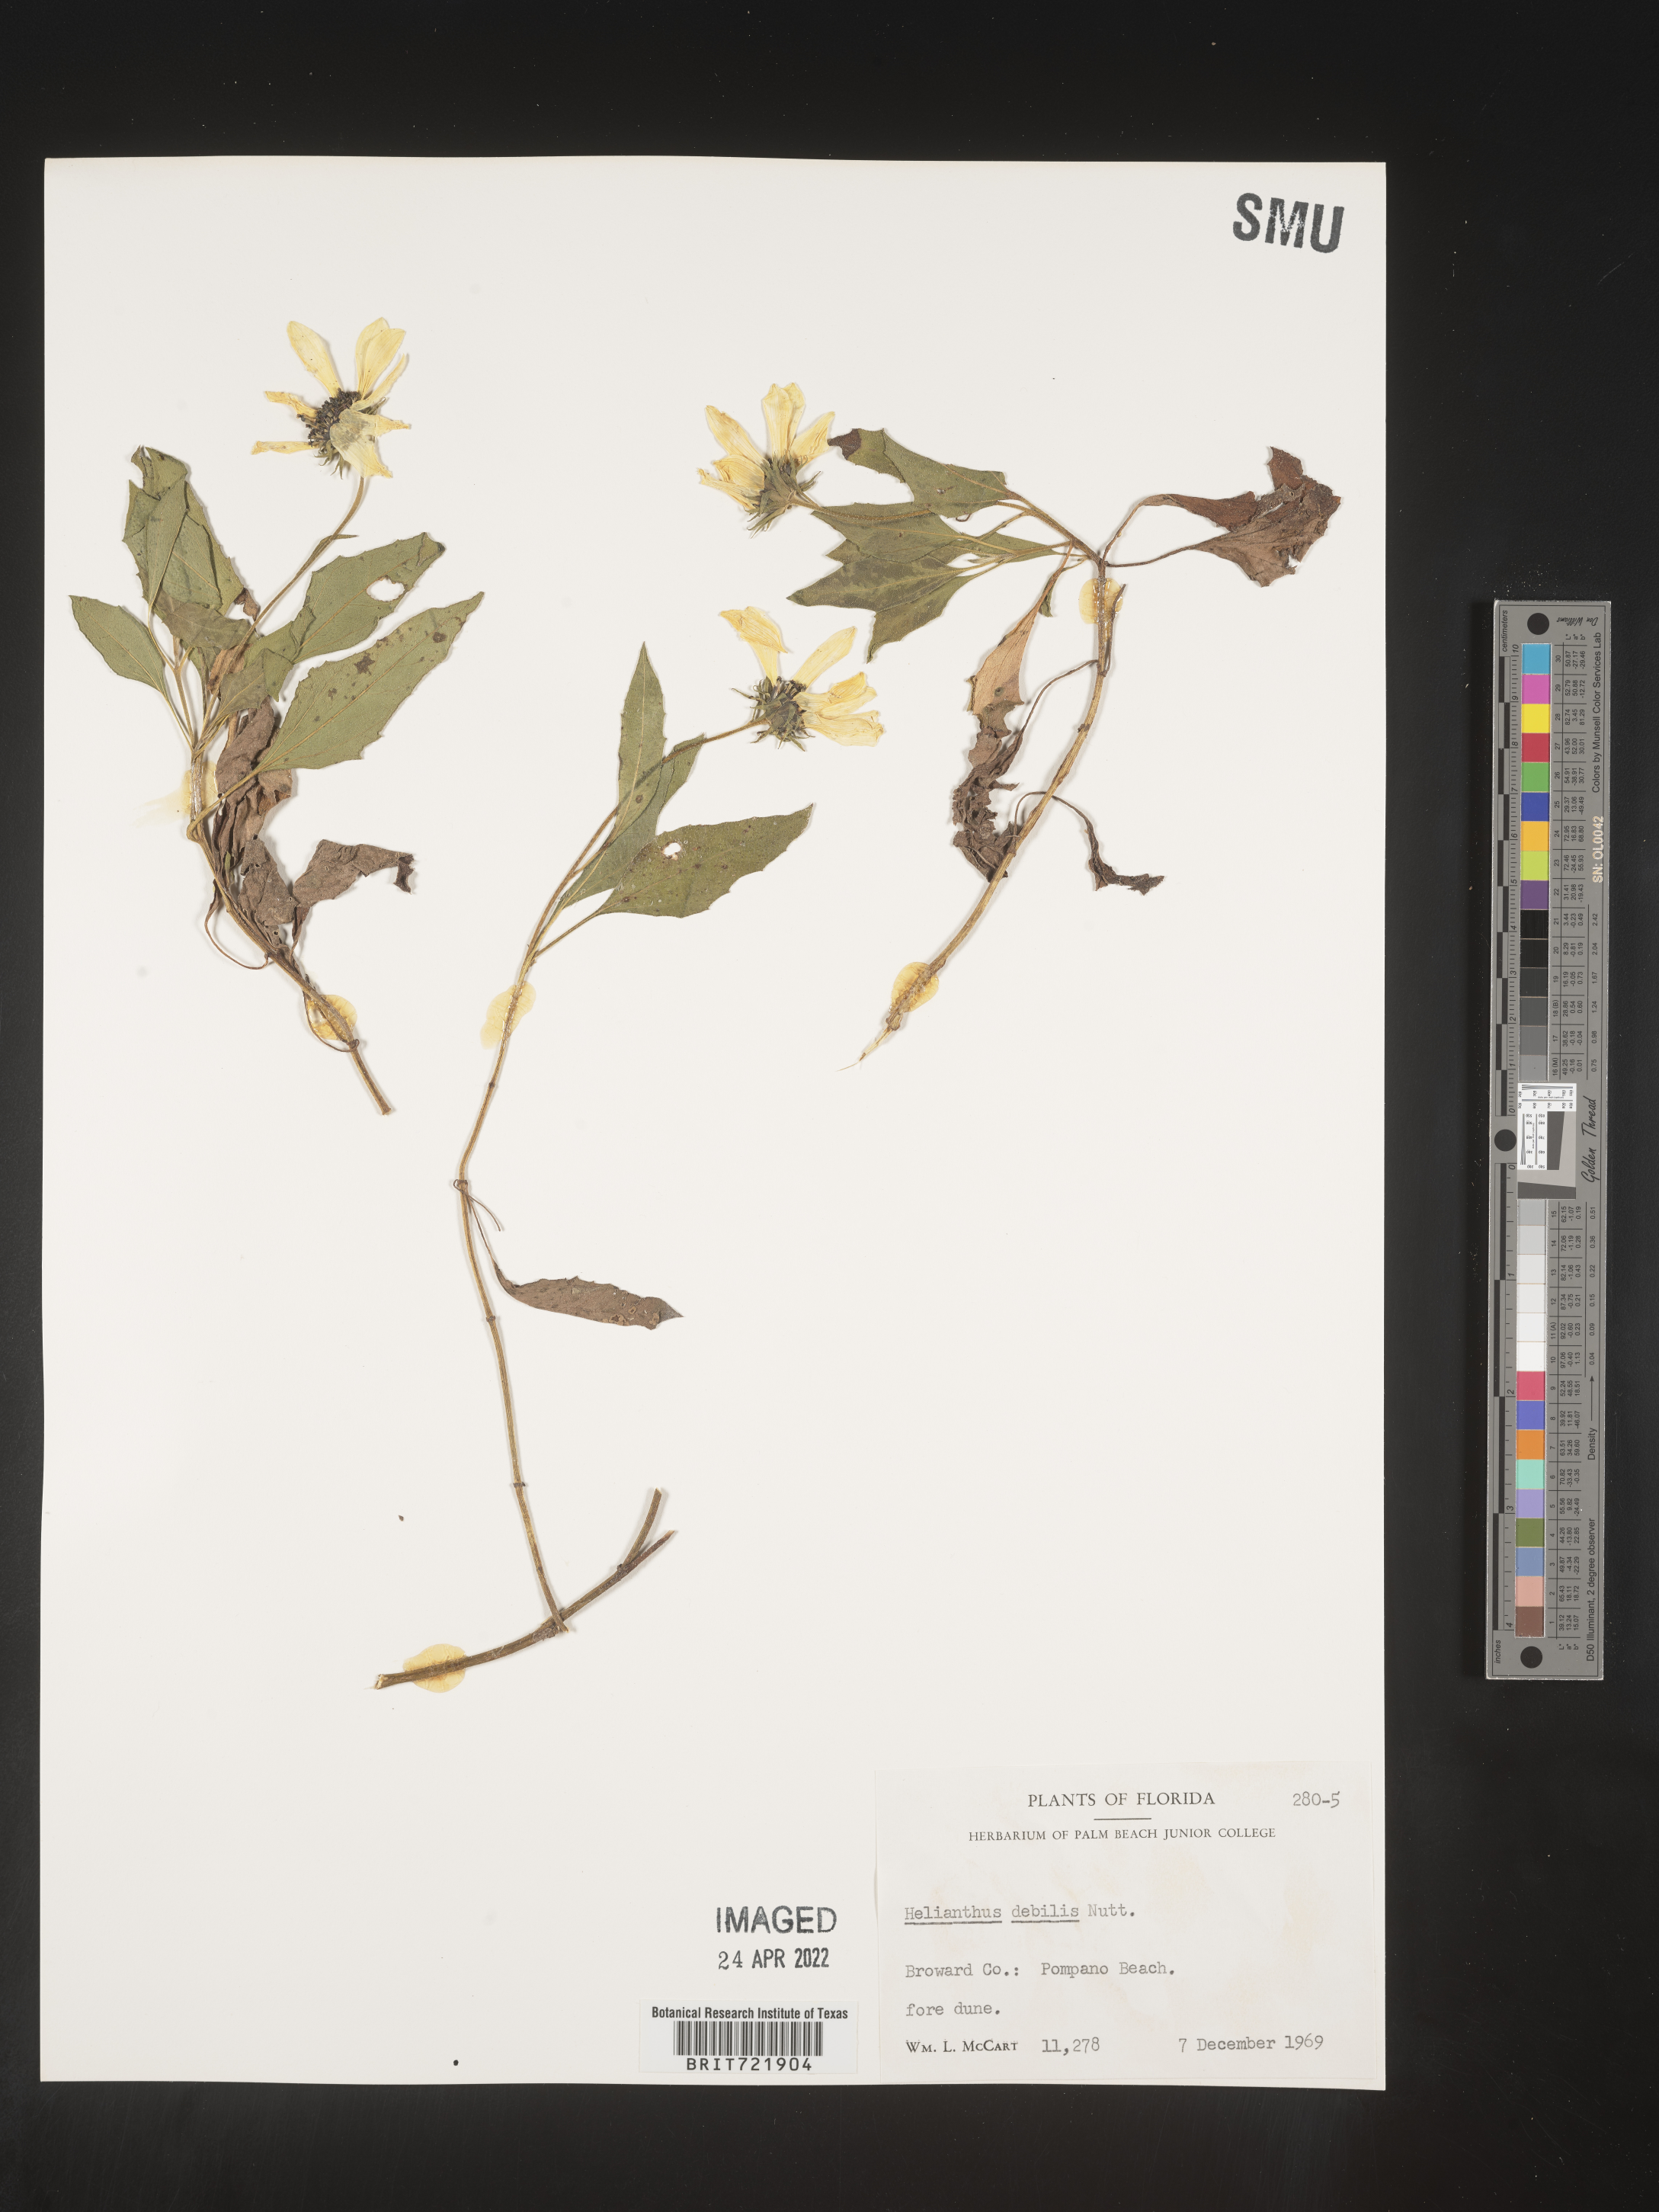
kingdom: Plantae
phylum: Tracheophyta
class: Magnoliopsida
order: Asterales
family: Asteraceae
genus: Helianthus
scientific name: Helianthus debilis
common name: Weak sunflower
